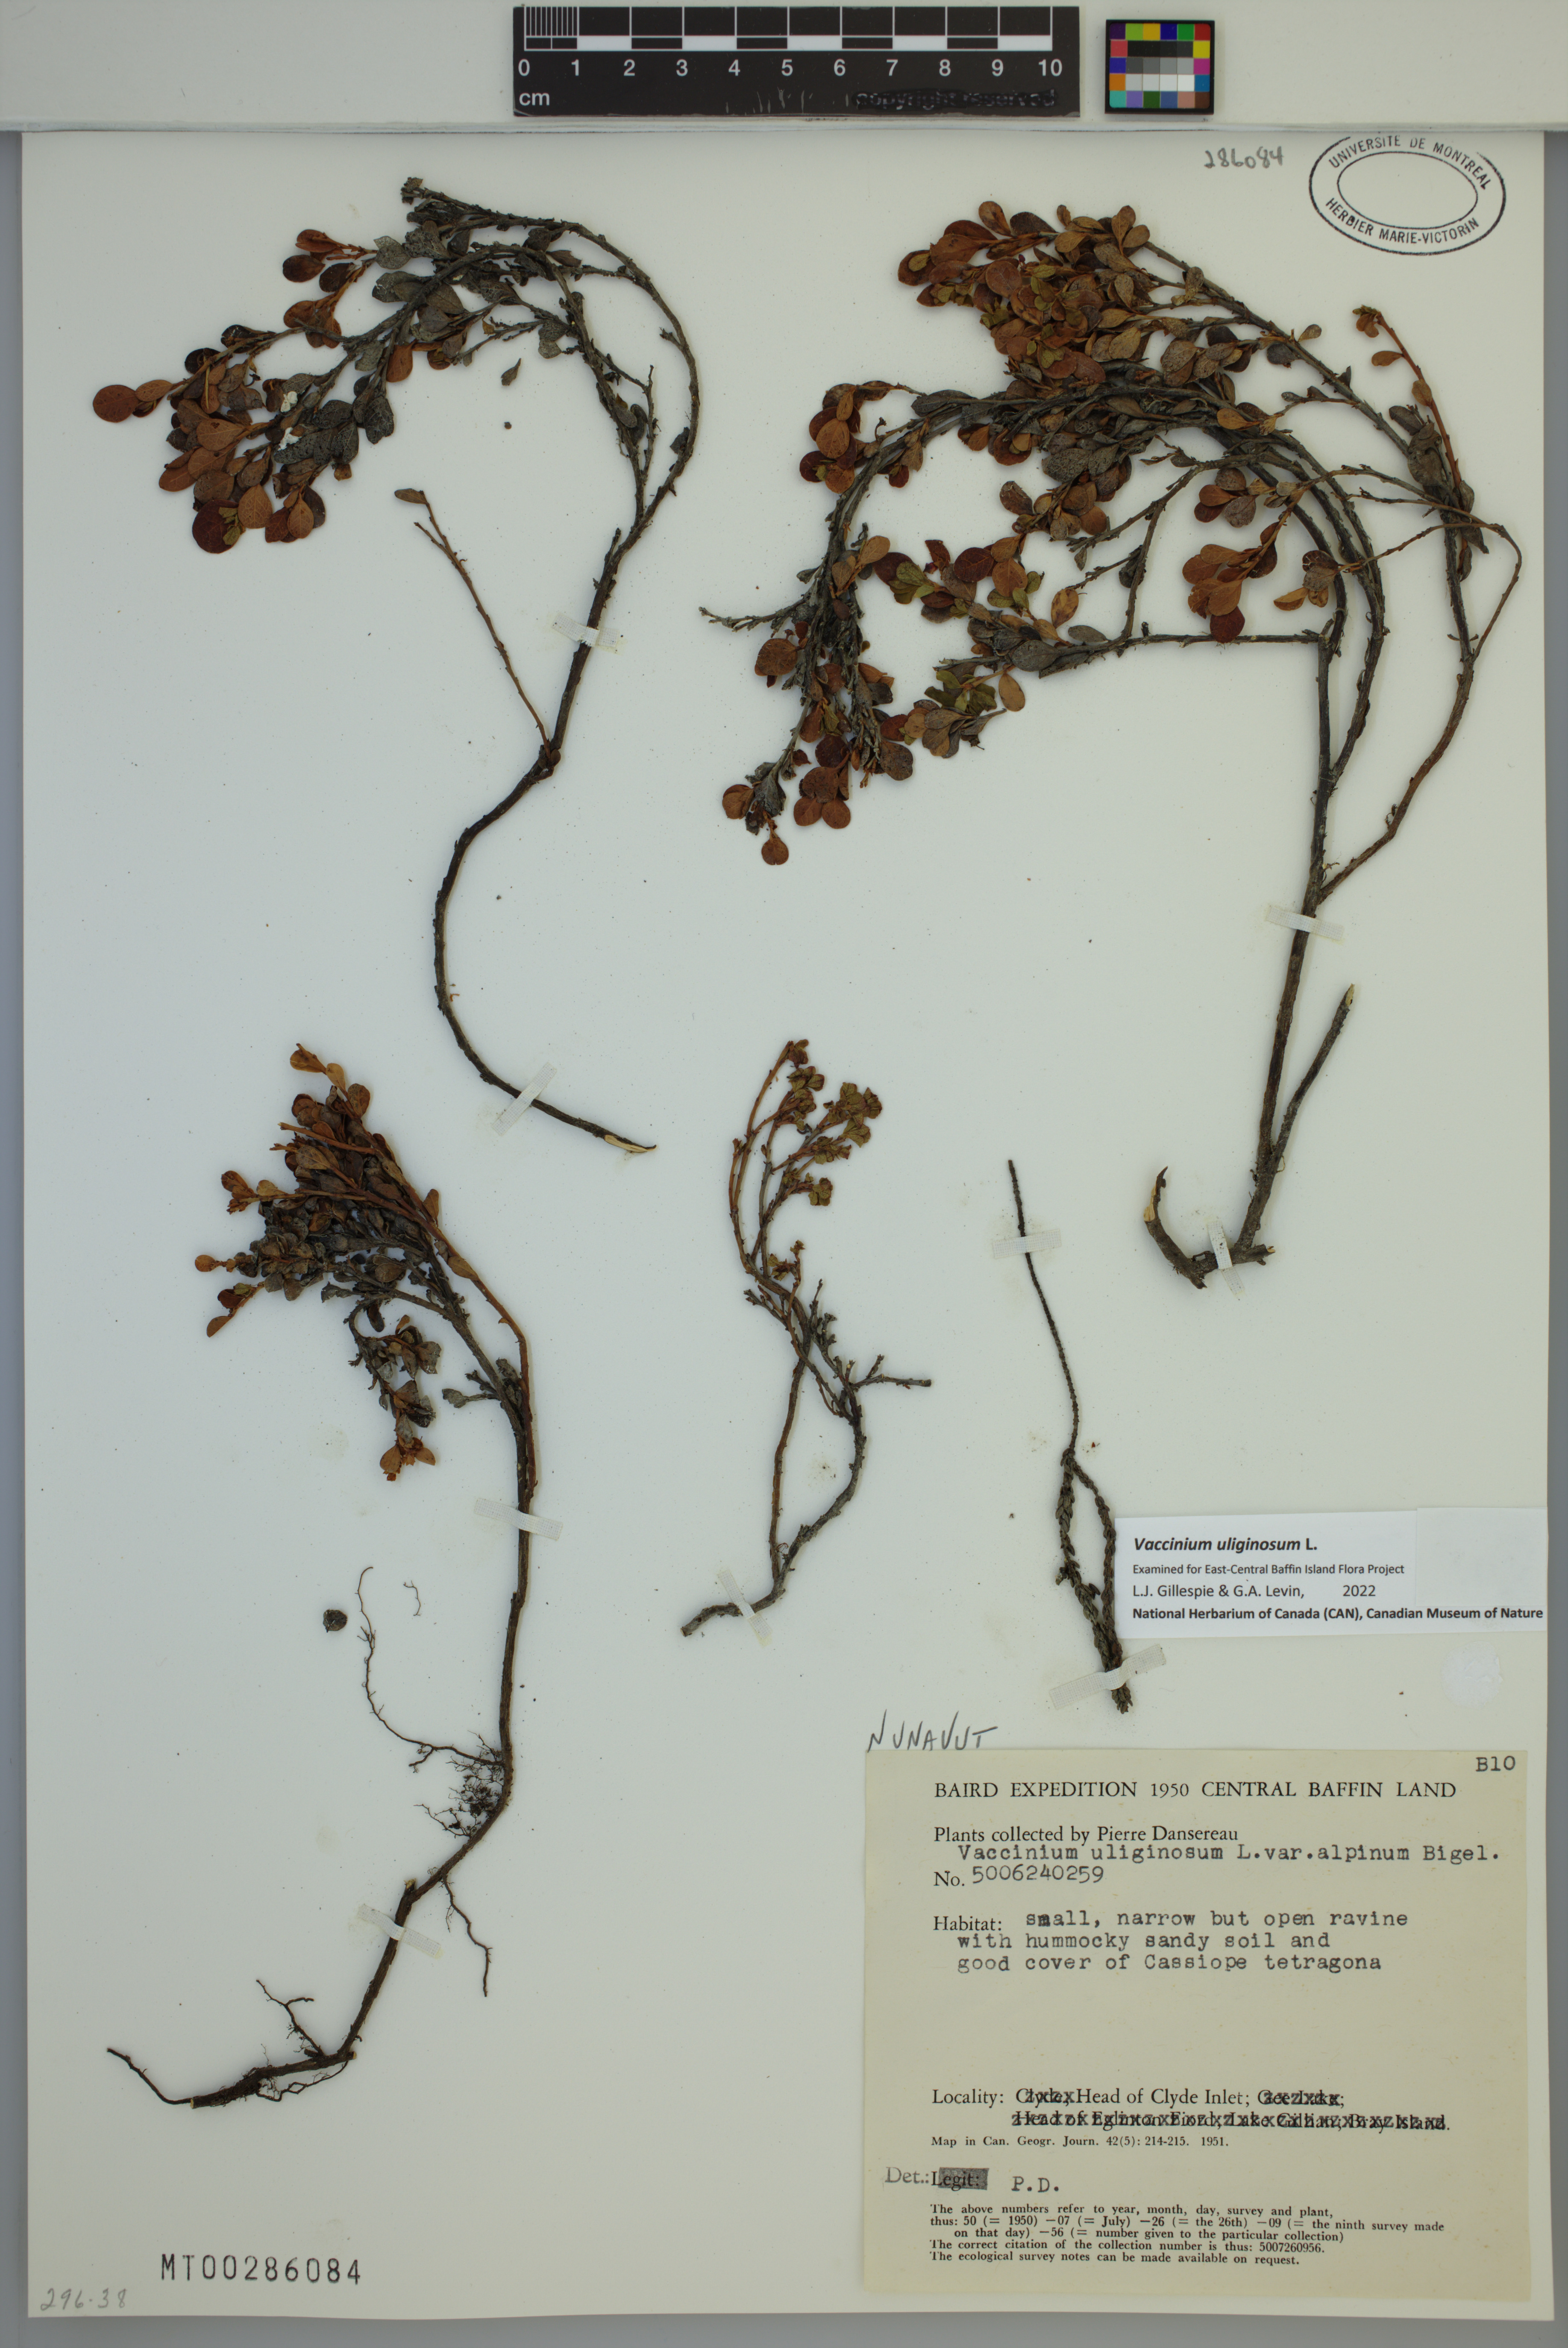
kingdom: Plantae
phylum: Tracheophyta
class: Magnoliopsida
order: Ericales
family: Ericaceae
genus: Vaccinium
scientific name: Vaccinium uliginosum
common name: Bog bilberry
